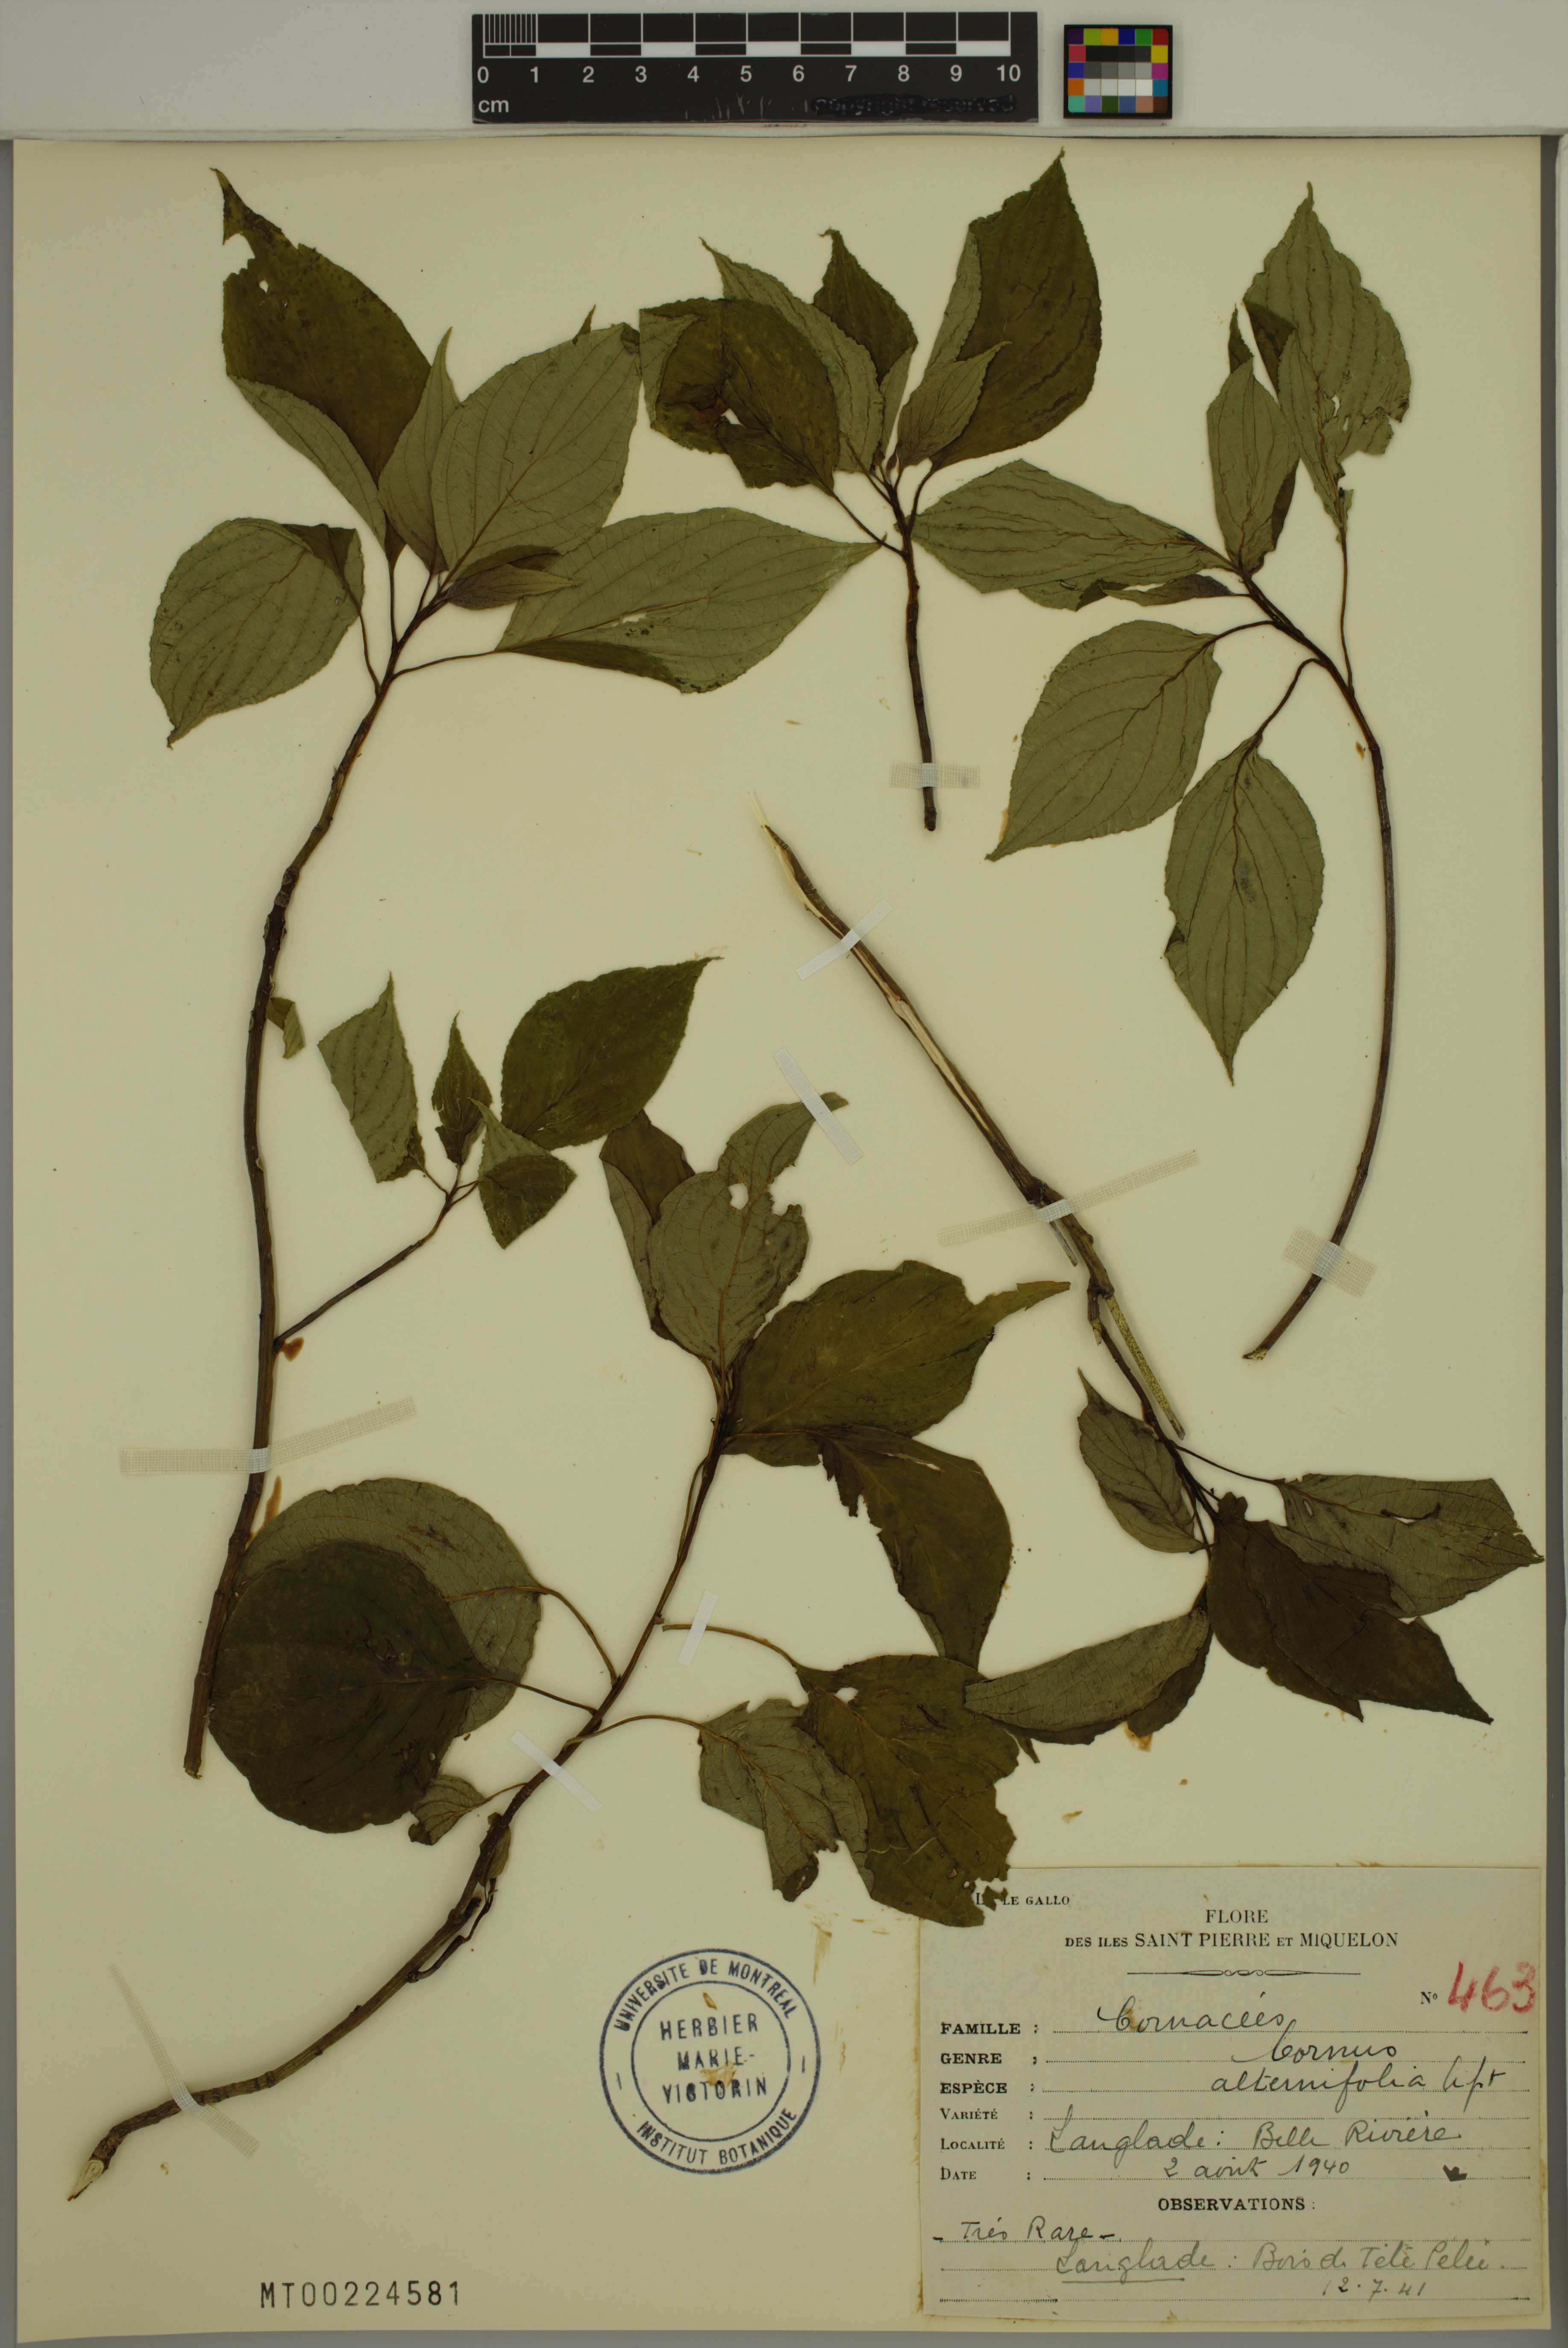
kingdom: Plantae
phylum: Tracheophyta
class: Magnoliopsida
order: Cornales
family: Cornaceae
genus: Cornus
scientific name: Cornus alternifolia
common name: Pagoda dogwood
